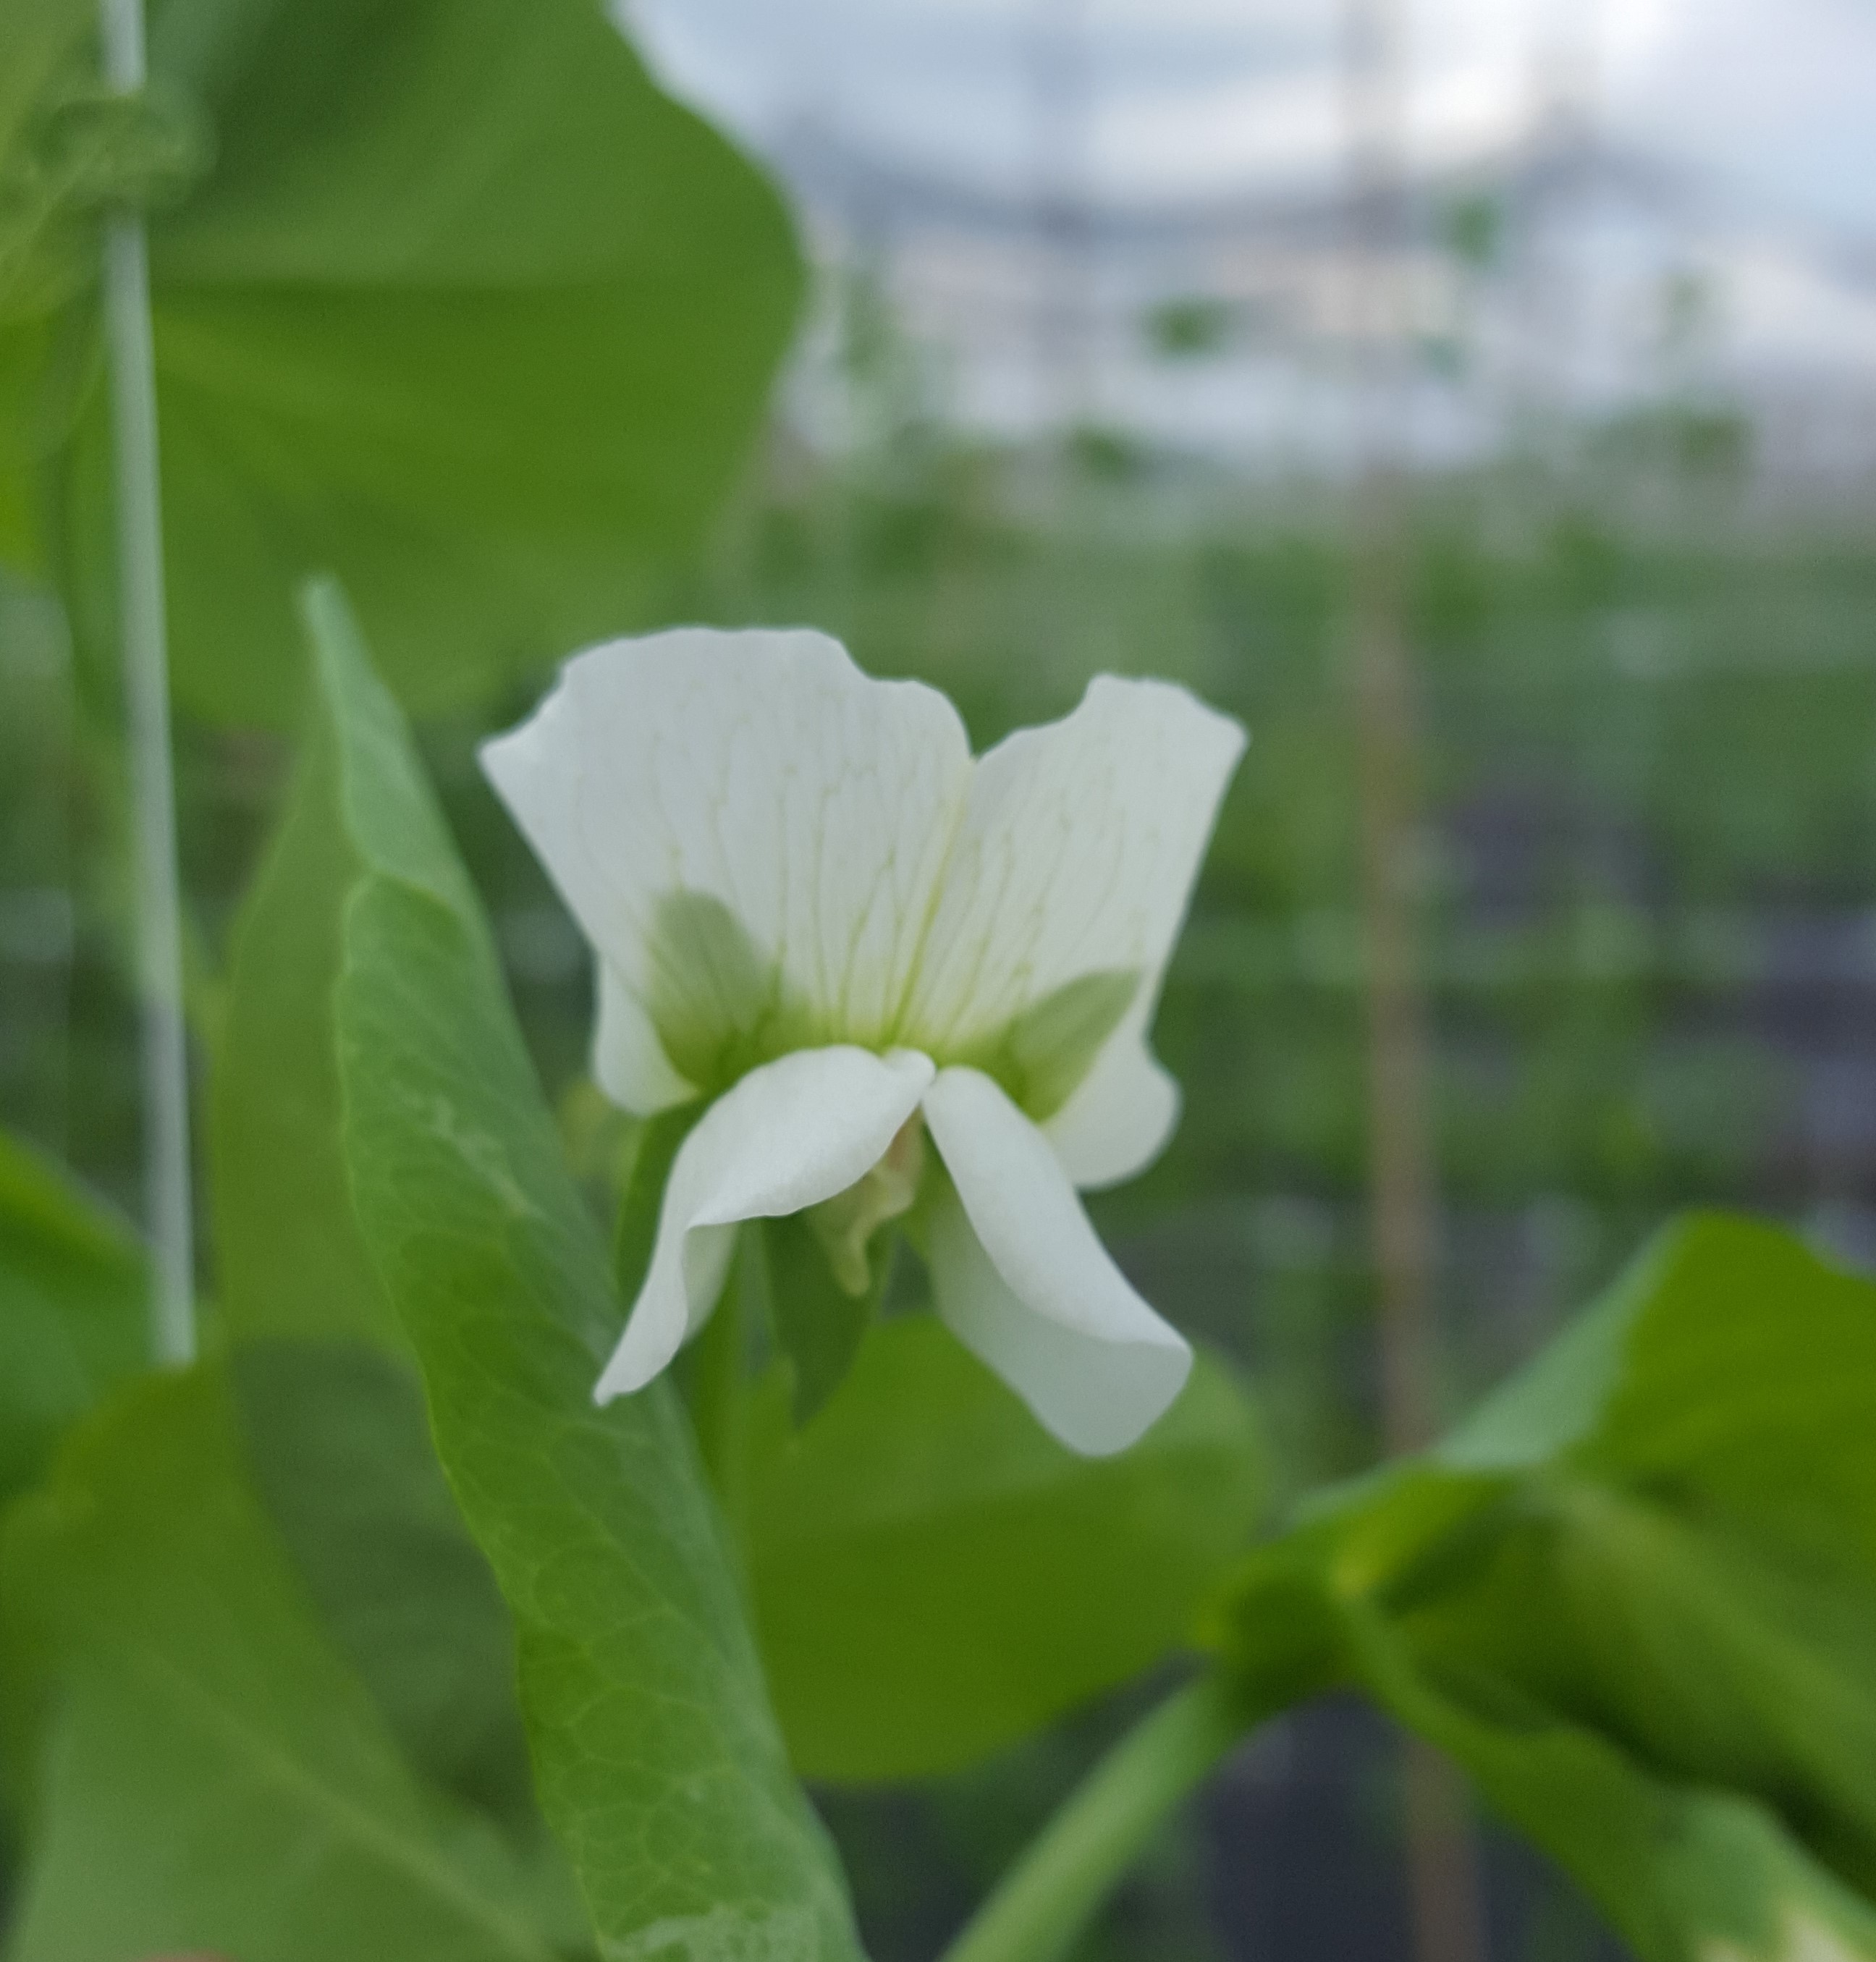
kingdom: Plantae
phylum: Tracheophyta
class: Magnoliopsida
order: Fabales
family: Fabaceae
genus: Lathyrus
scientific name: Lathyrus oleraceus
